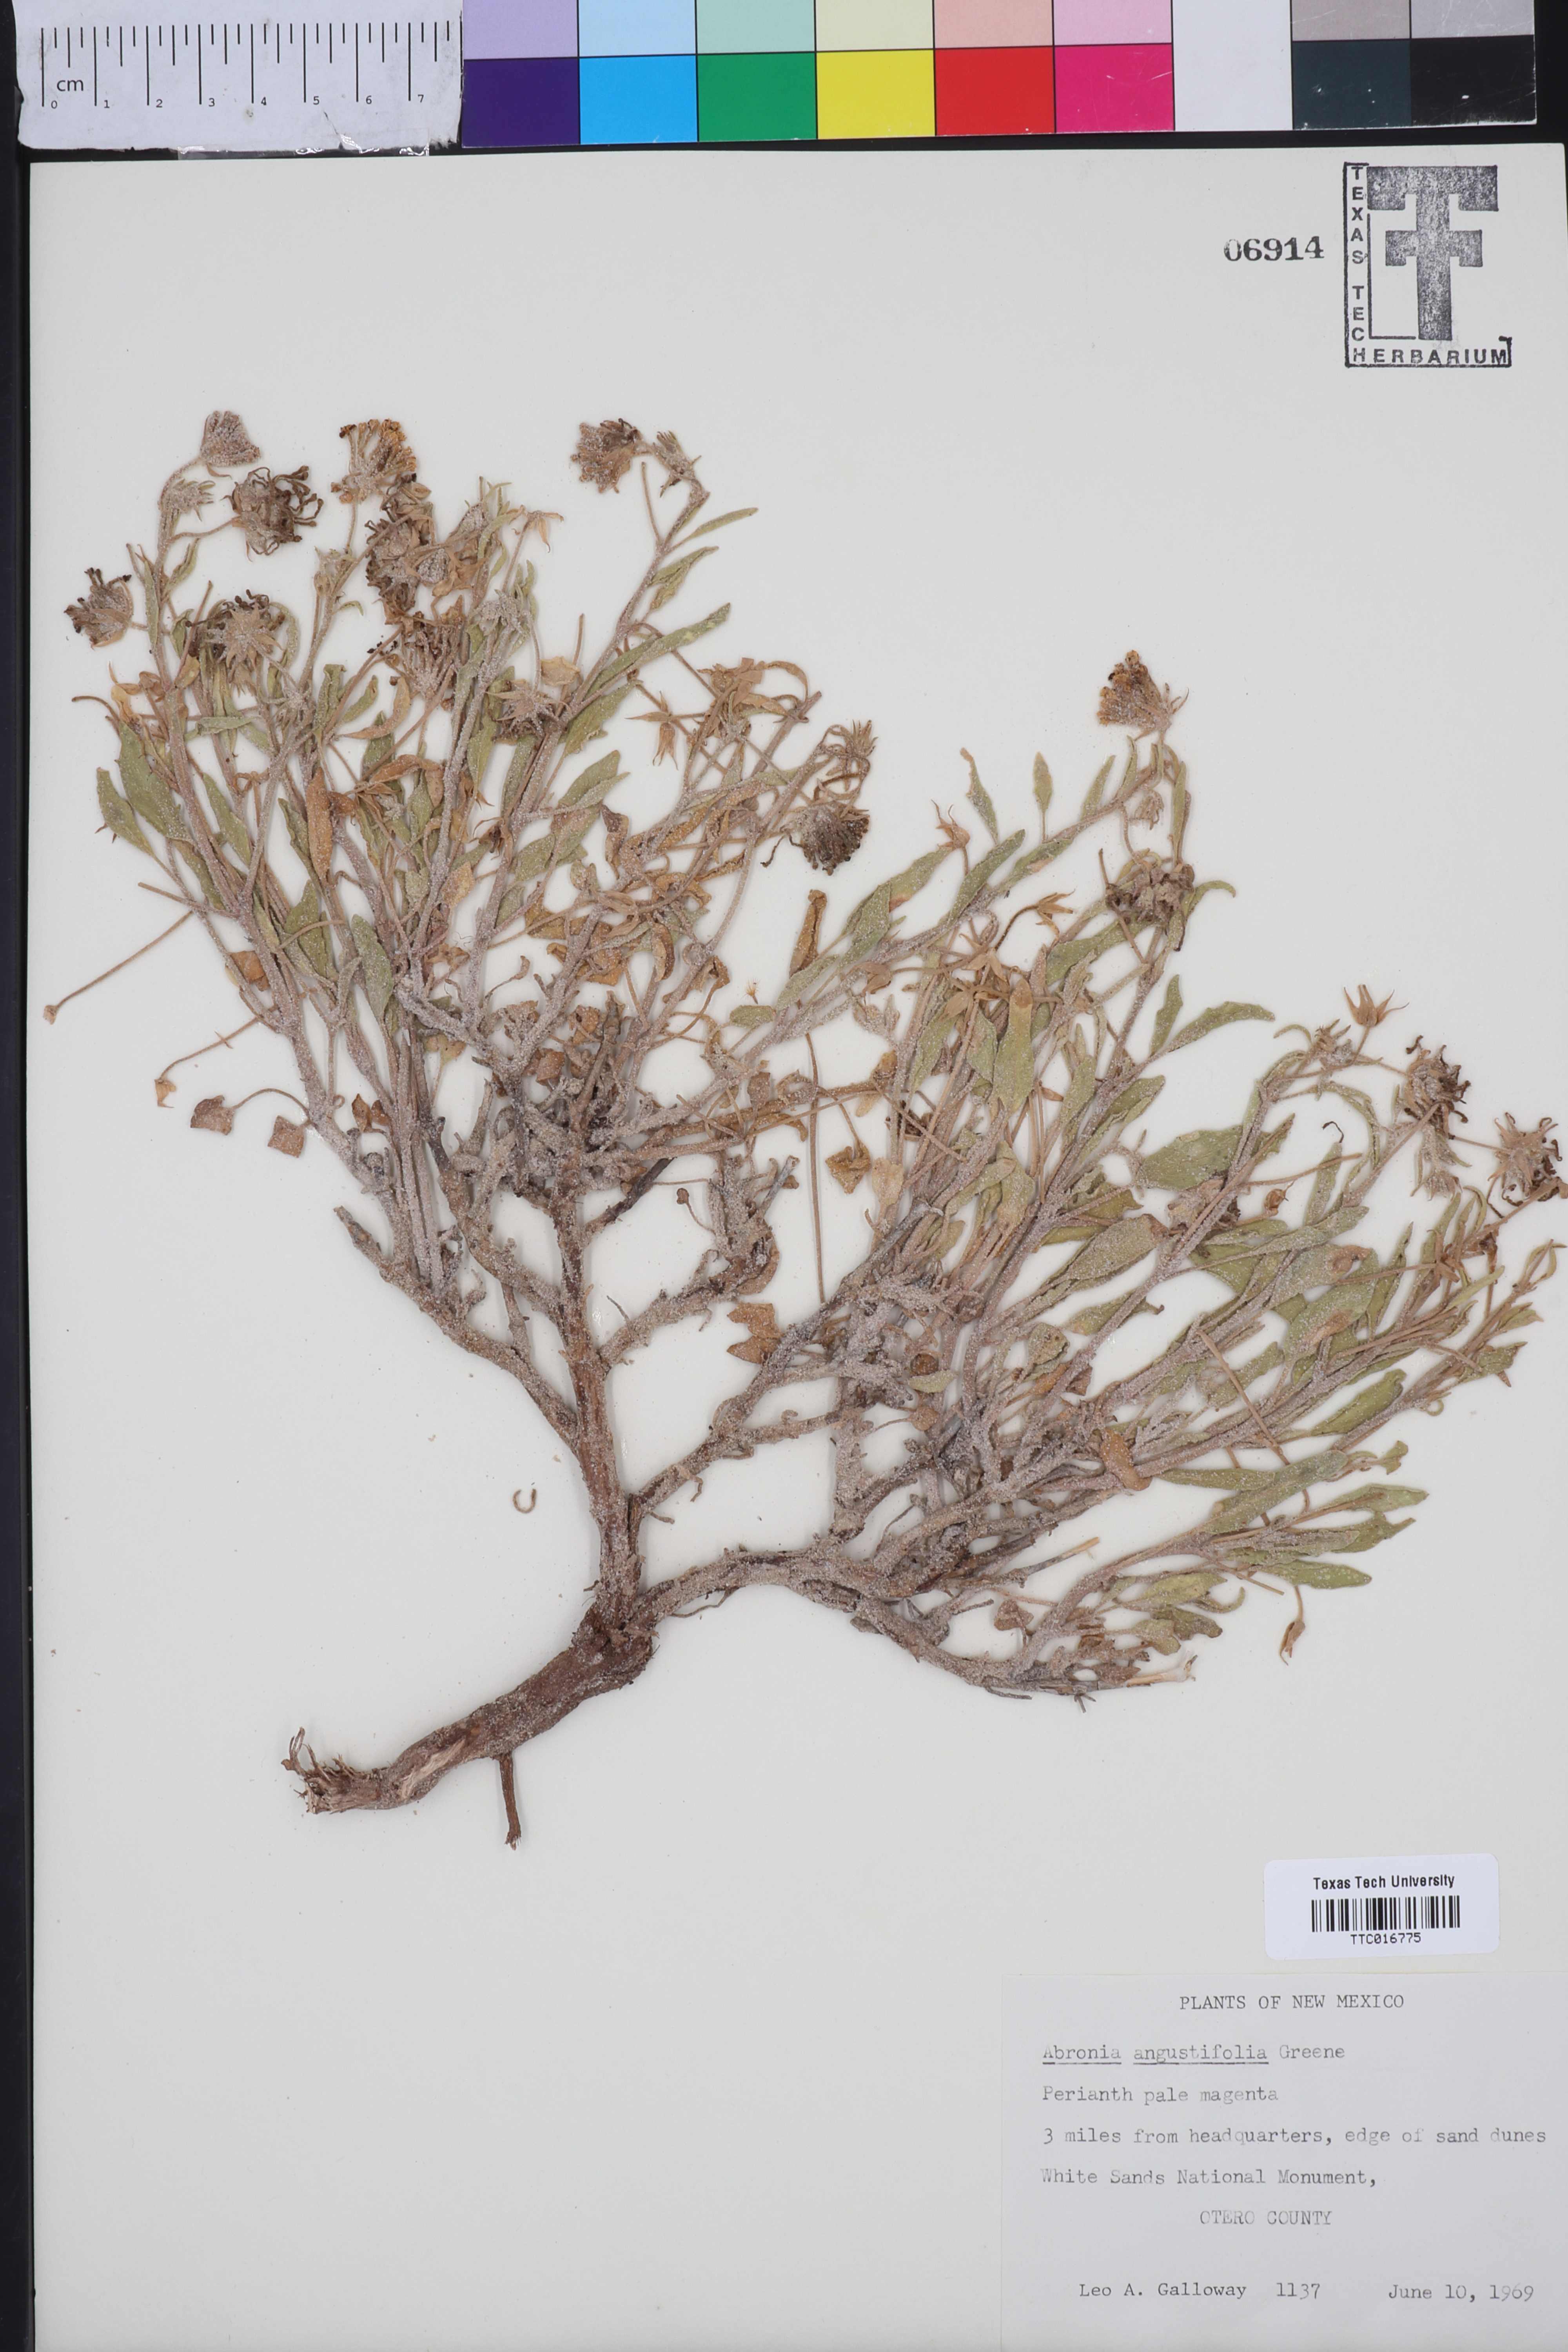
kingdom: Plantae
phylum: Tracheophyta
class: Magnoliopsida
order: Caryophyllales
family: Nyctaginaceae
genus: Abronia
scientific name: Abronia angustifolia
